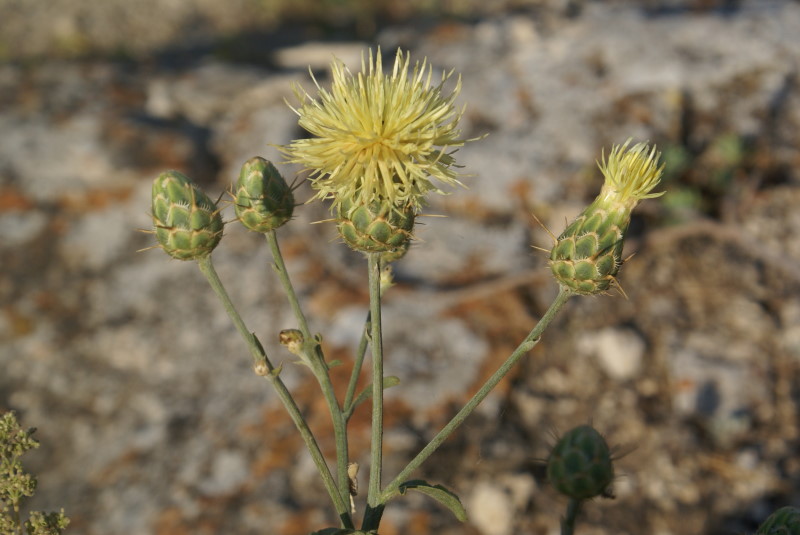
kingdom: Plantae
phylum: Tracheophyta
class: Magnoliopsida
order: Asterales
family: Asteraceae
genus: Centaurea
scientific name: Centaurea solstitialis
